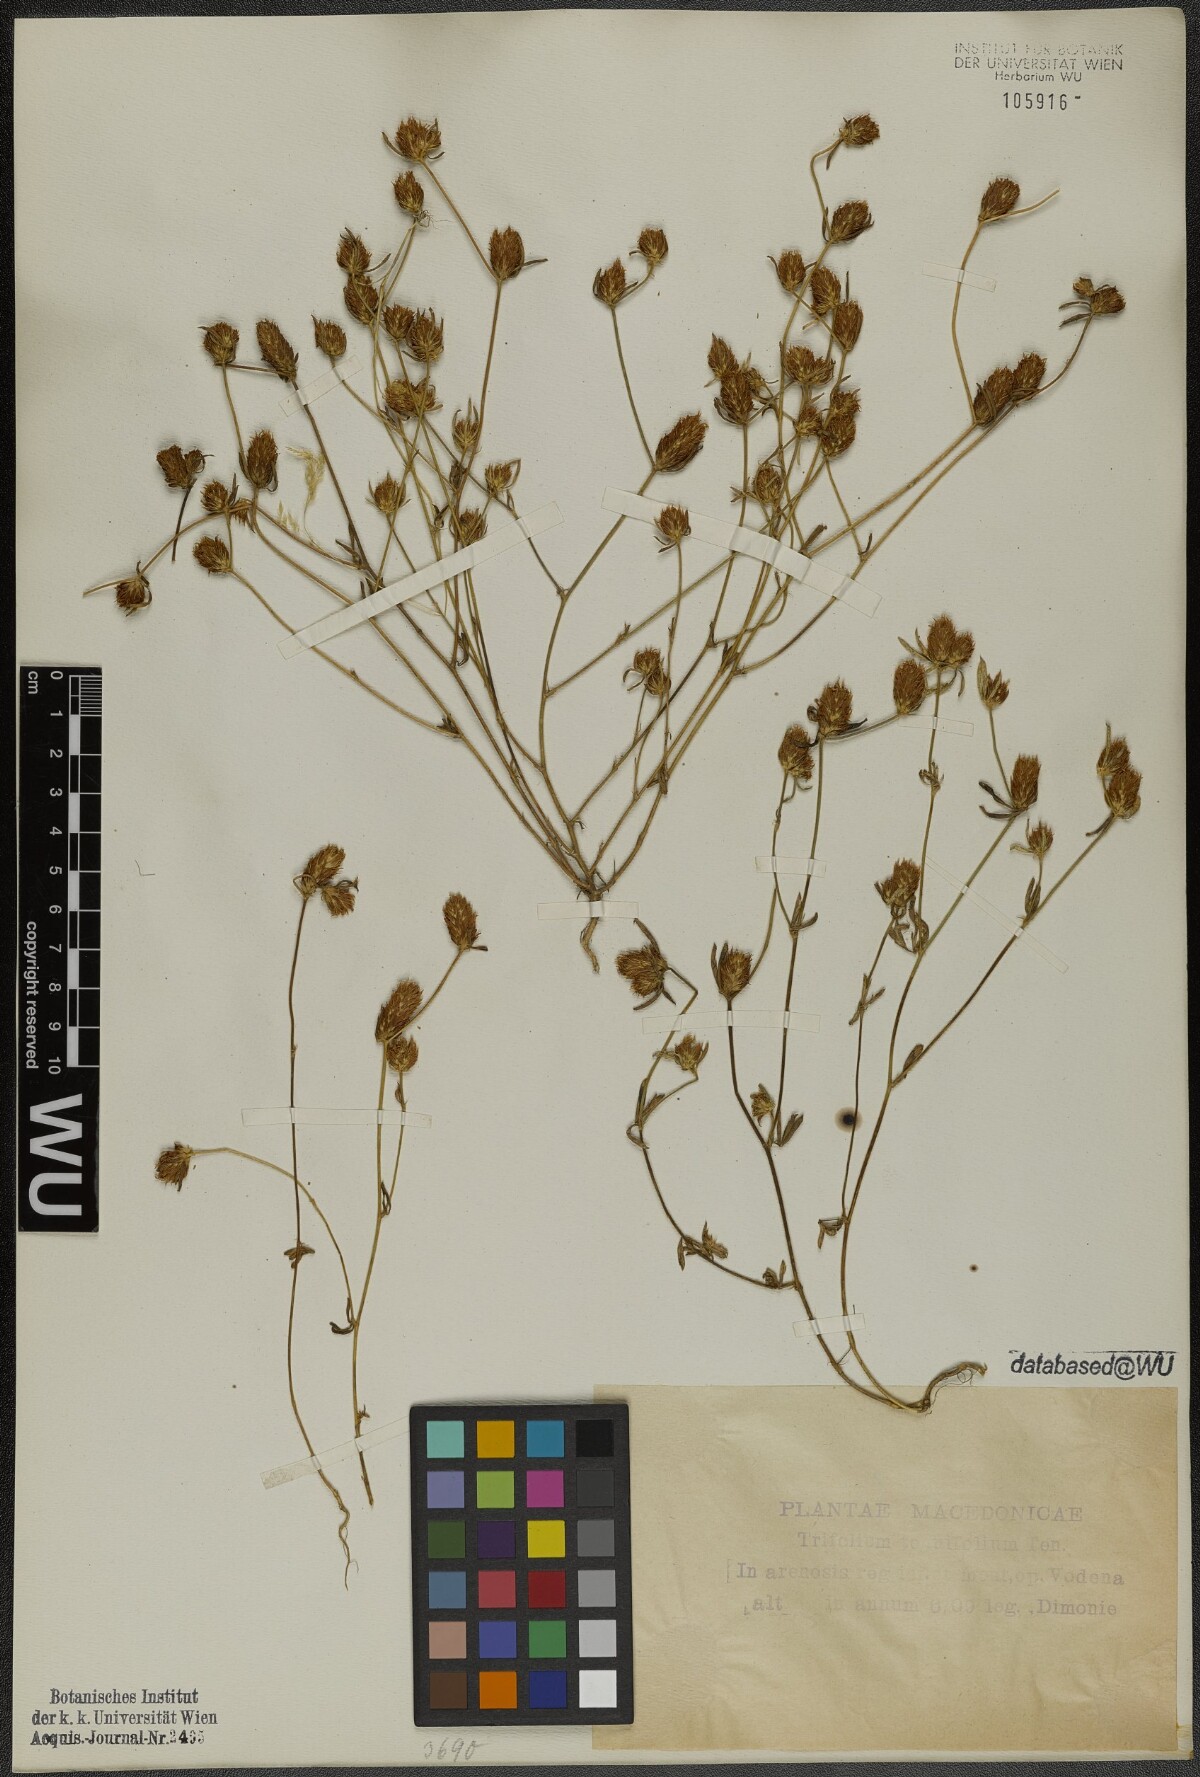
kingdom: Plantae
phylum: Tracheophyta
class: Magnoliopsida
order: Fabales
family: Fabaceae
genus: Trifolium
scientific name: Trifolium tenuifolium
